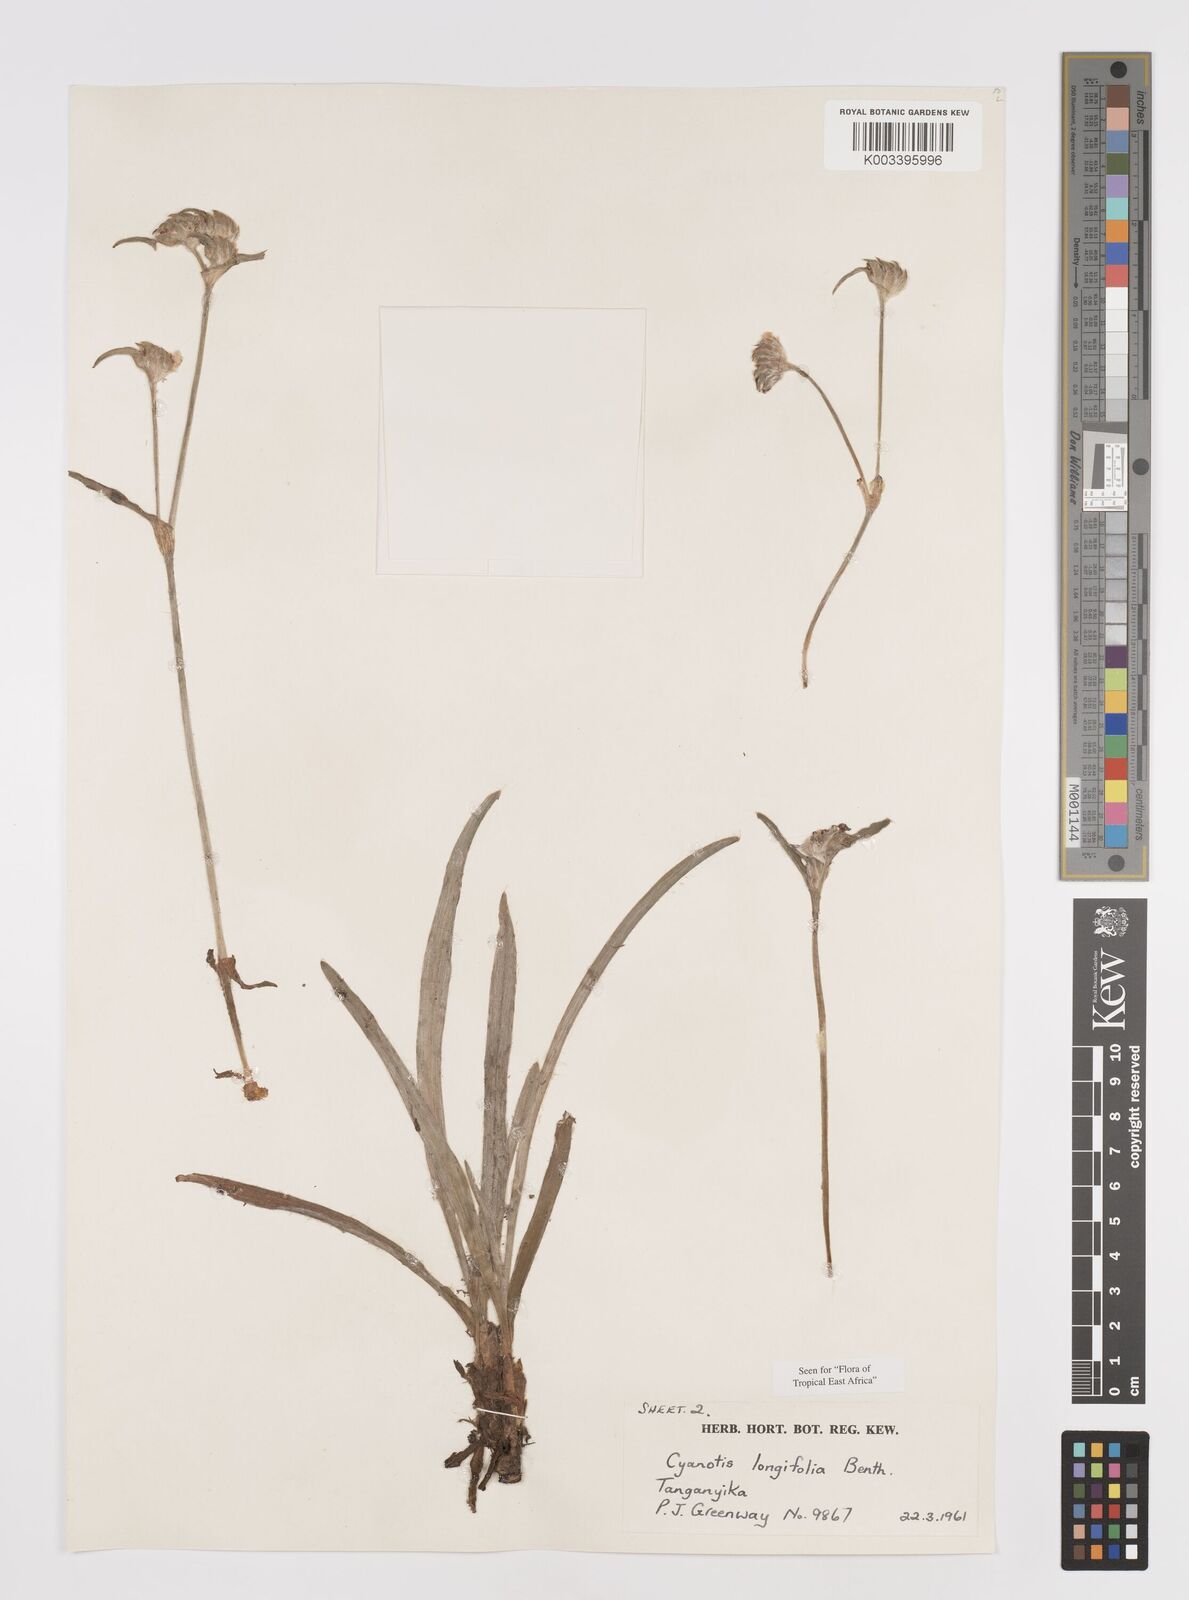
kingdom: Plantae
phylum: Tracheophyta
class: Liliopsida
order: Commelinales
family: Commelinaceae
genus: Cyanotis
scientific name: Cyanotis longifolia
